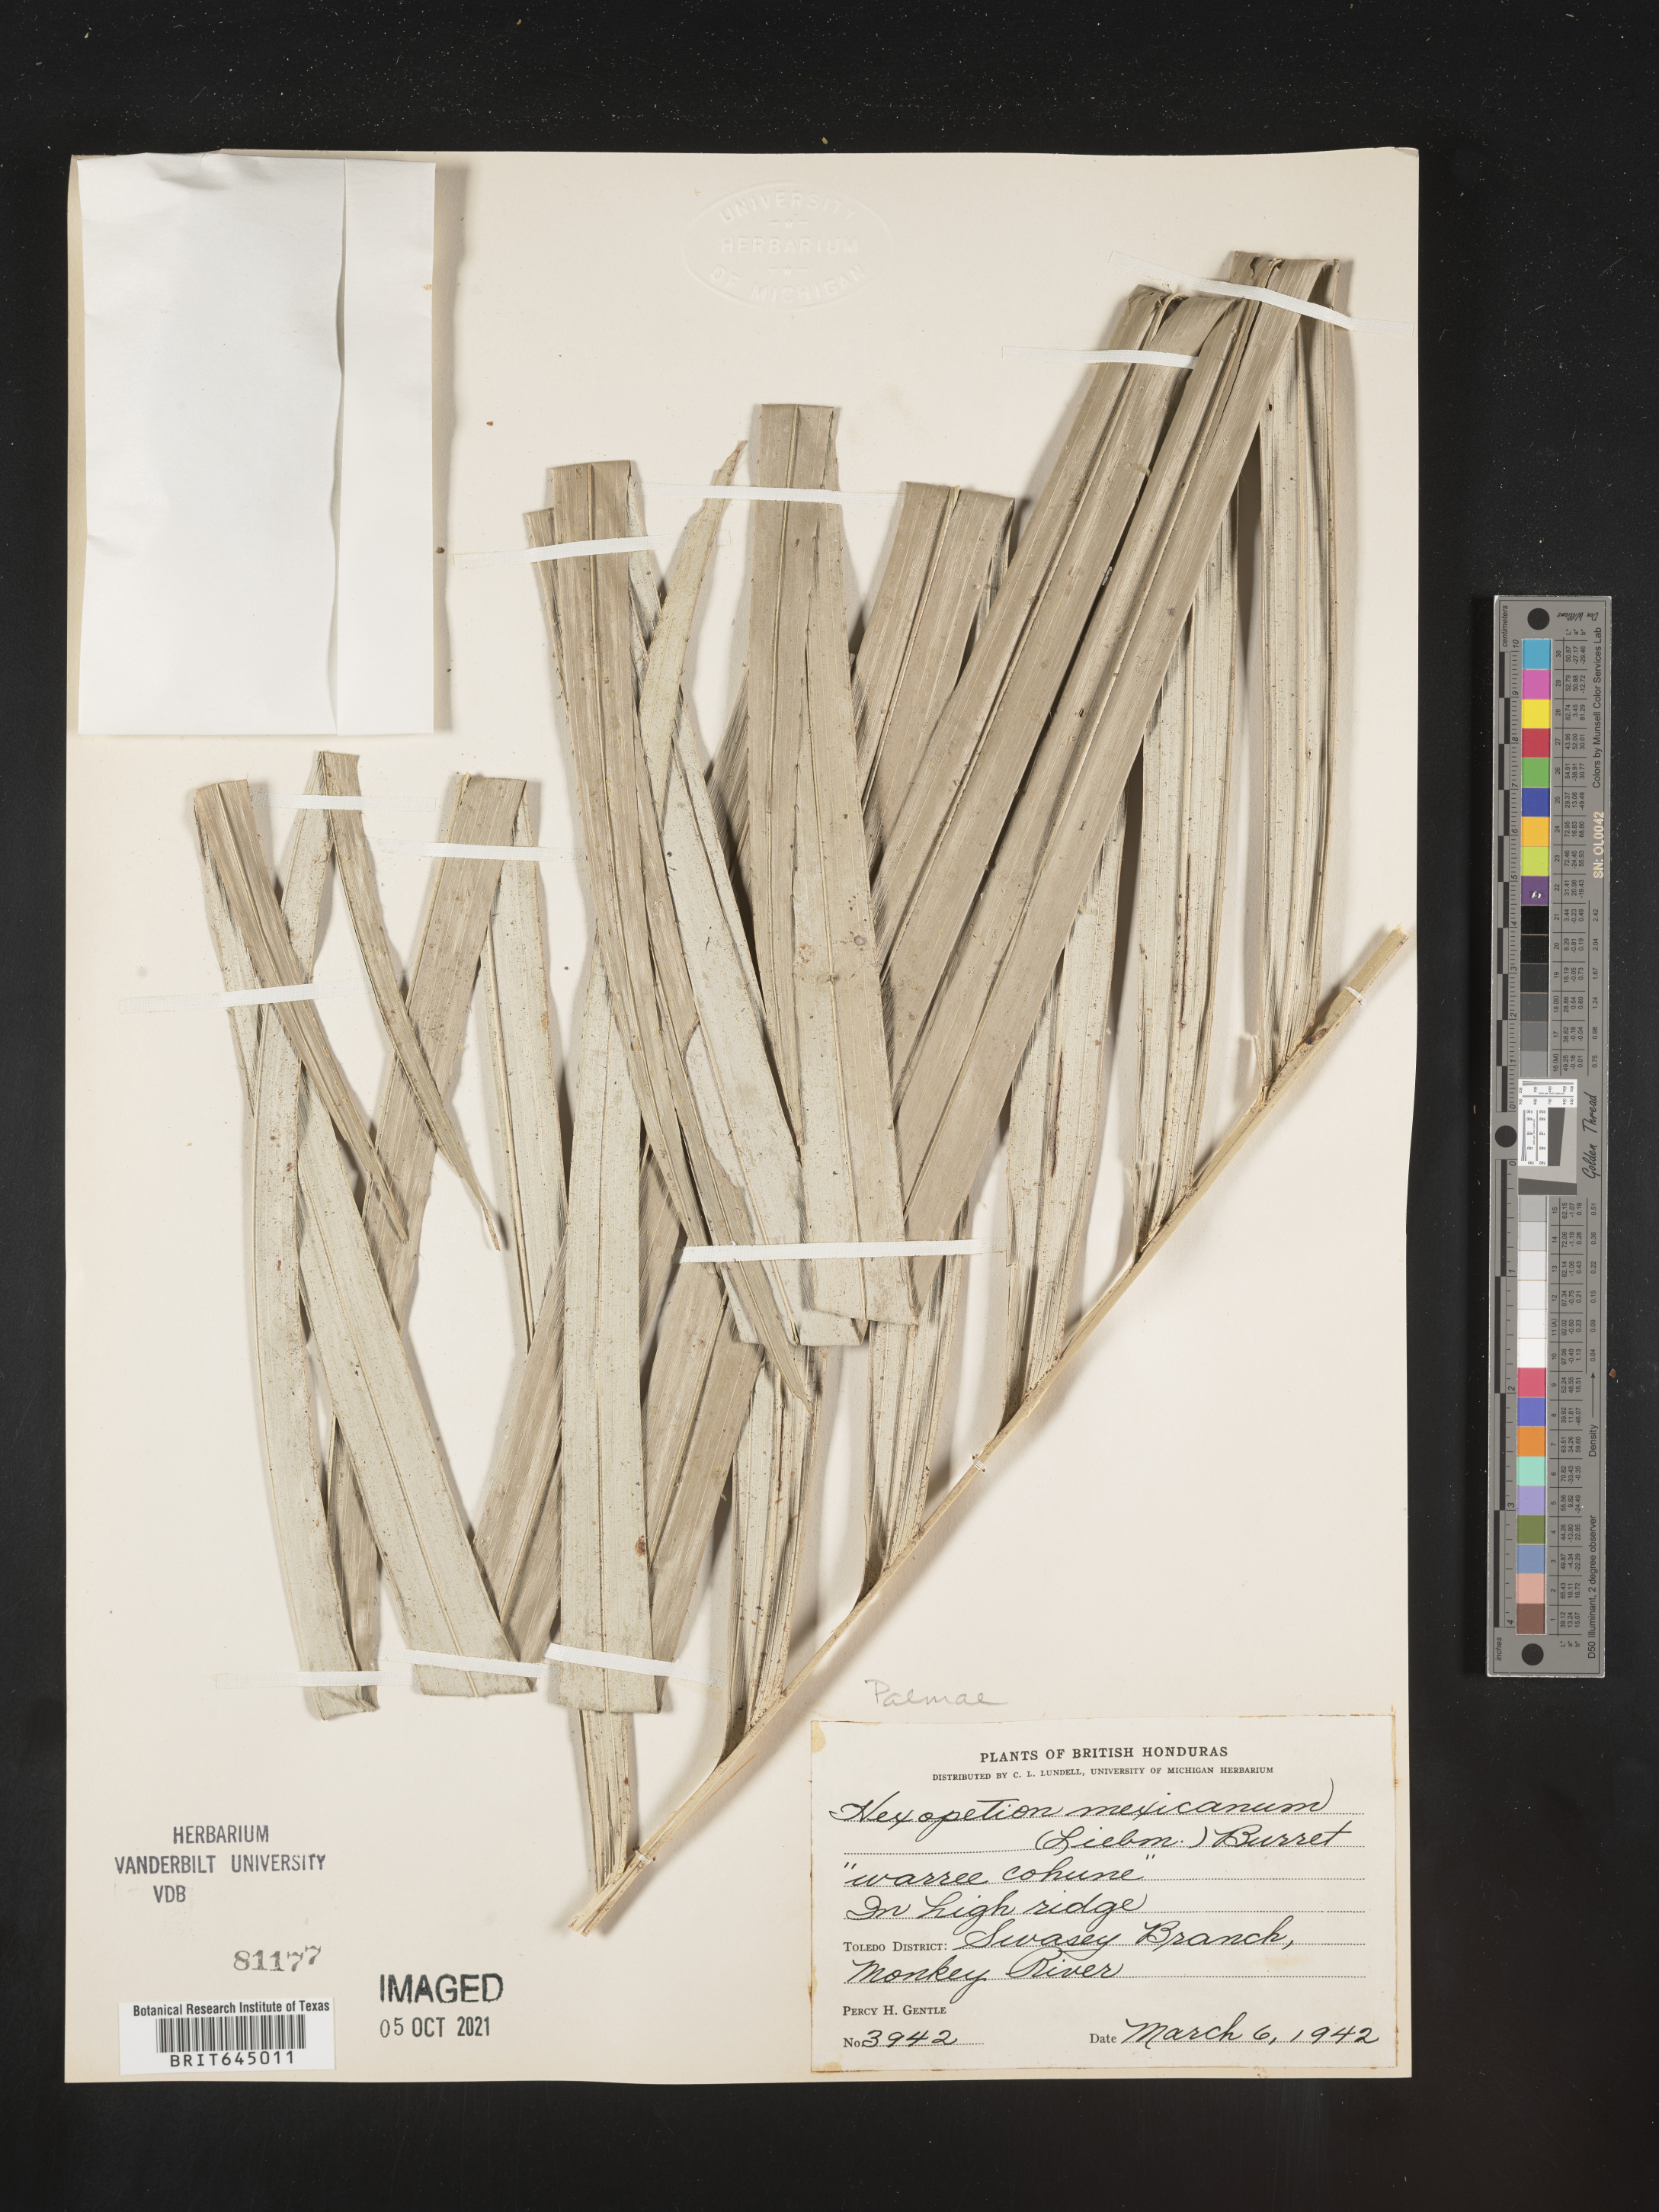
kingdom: Plantae
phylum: Tracheophyta
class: Liliopsida
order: Arecales
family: Arecaceae
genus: Astrocaryum
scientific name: Astrocaryum mexicanum
